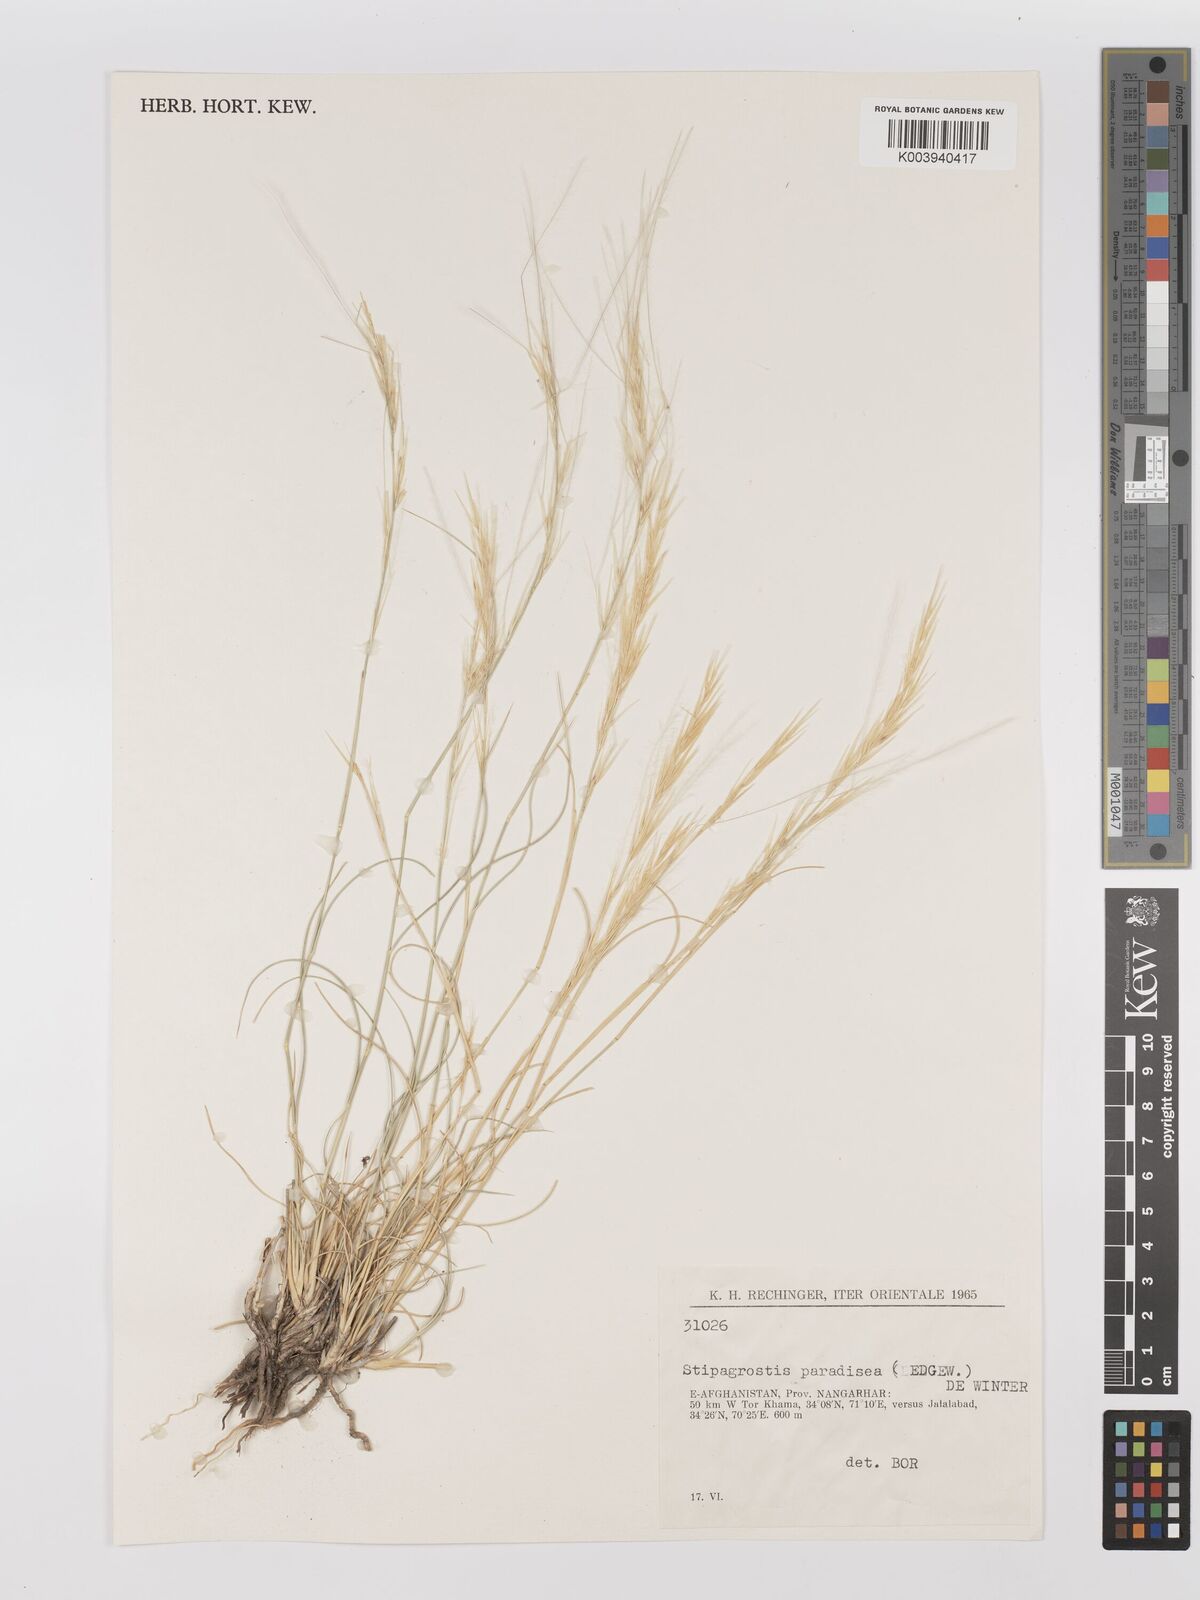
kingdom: Plantae
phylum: Tracheophyta
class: Liliopsida
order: Poales
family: Poaceae
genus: Stipagrostis
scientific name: Stipagrostis paradisea
